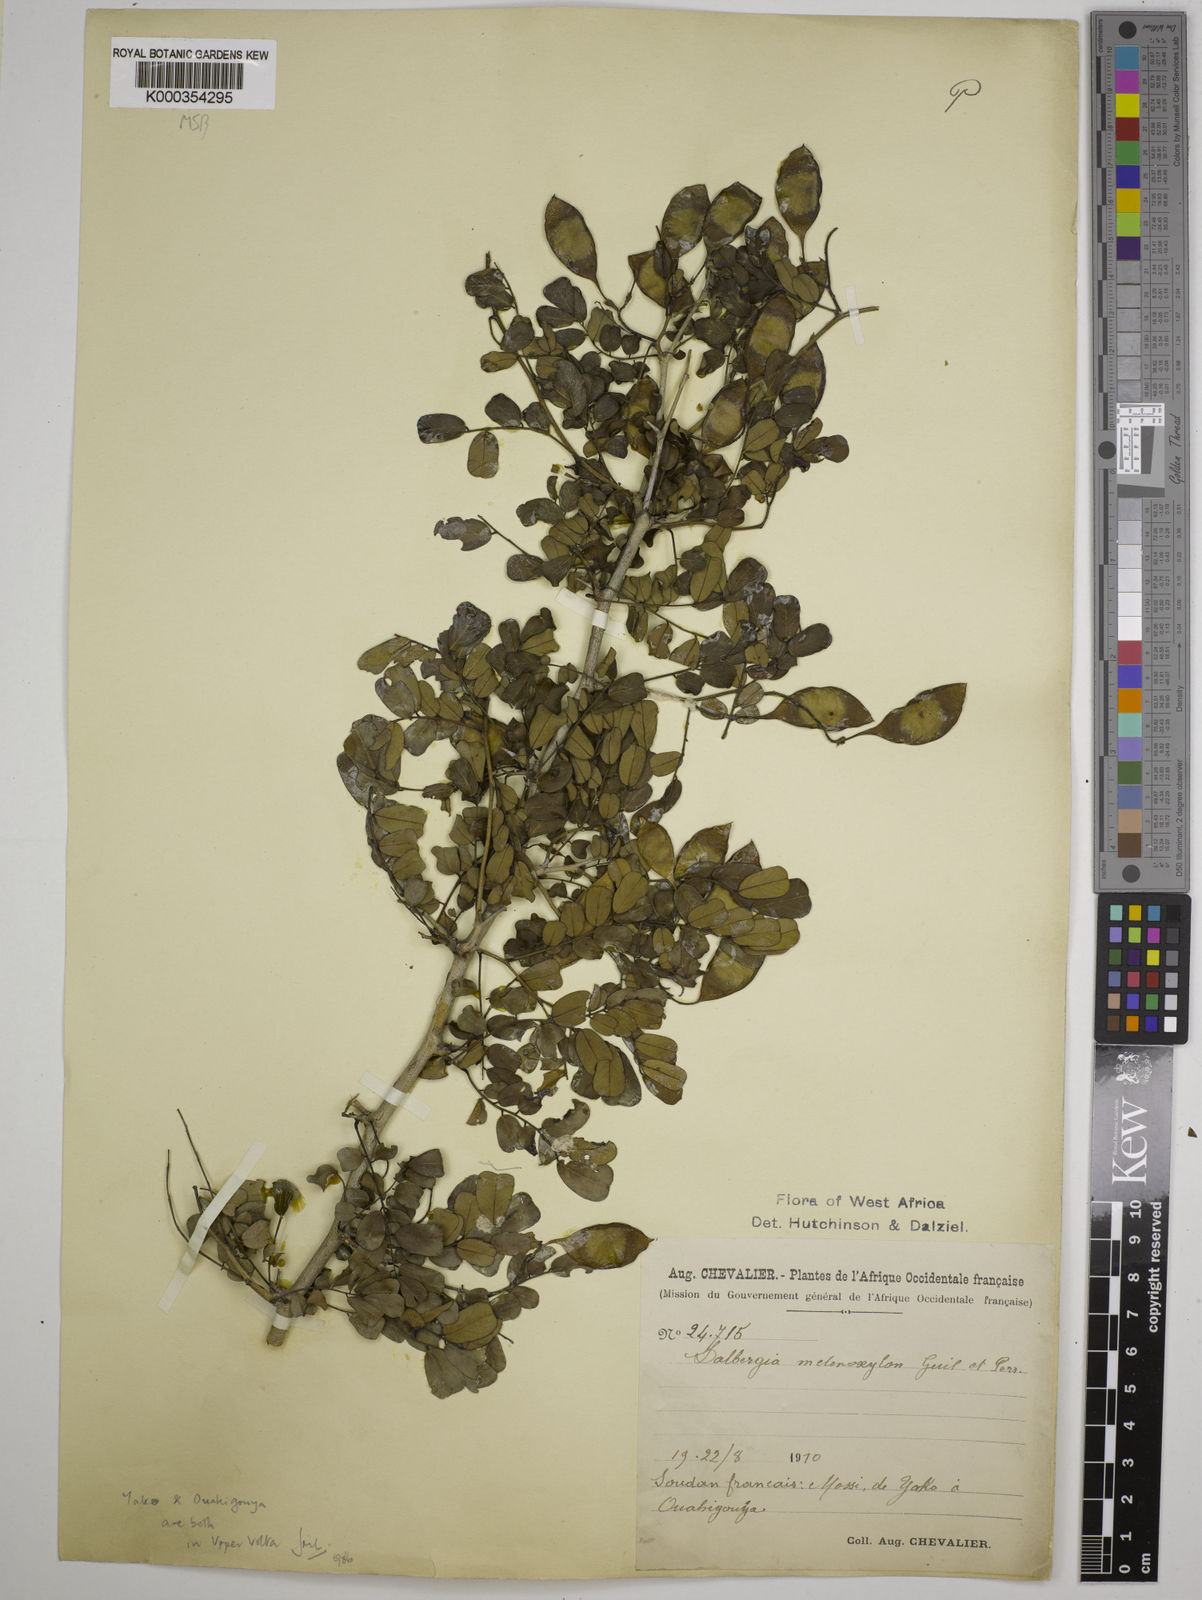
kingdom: Plantae
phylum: Tracheophyta
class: Magnoliopsida
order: Fabales
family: Fabaceae
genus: Dalbergia
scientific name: Dalbergia melanoxylon
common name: African blackwood
